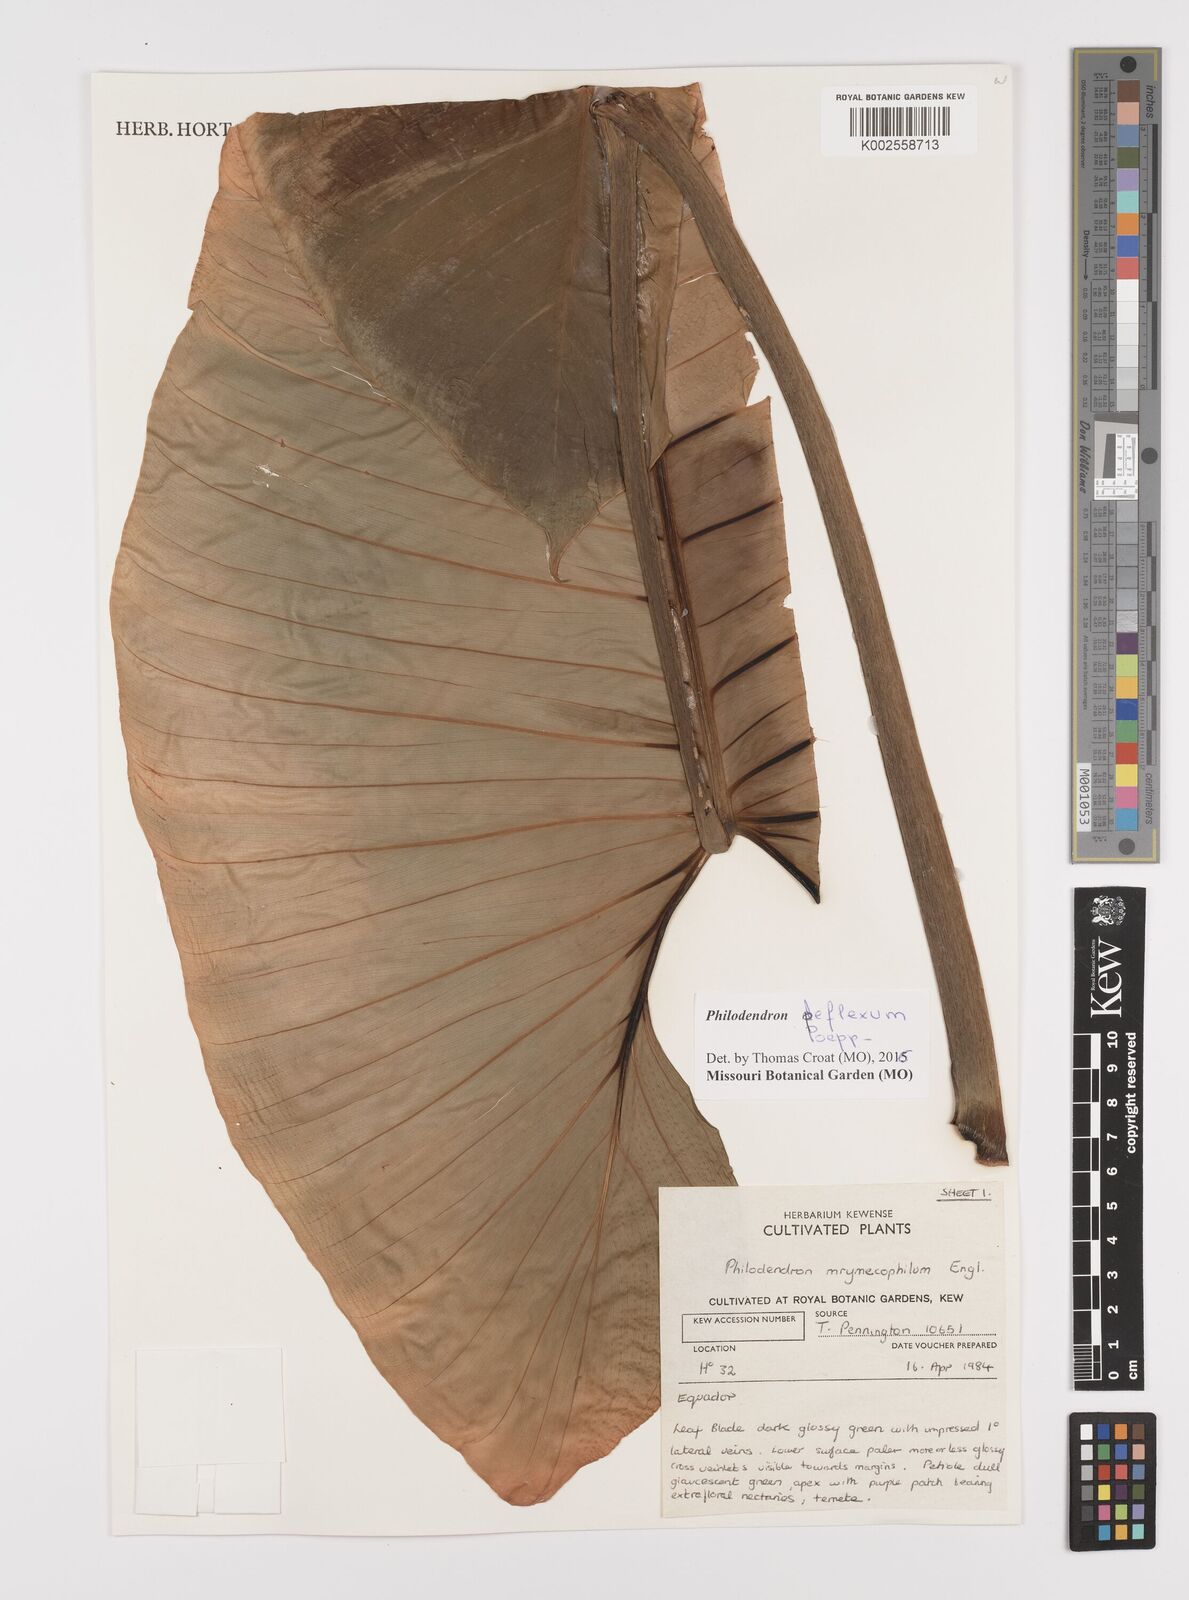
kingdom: Plantae
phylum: Tracheophyta
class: Liliopsida
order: Alismatales
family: Araceae
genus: Philodendron
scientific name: Philodendron deflexum
